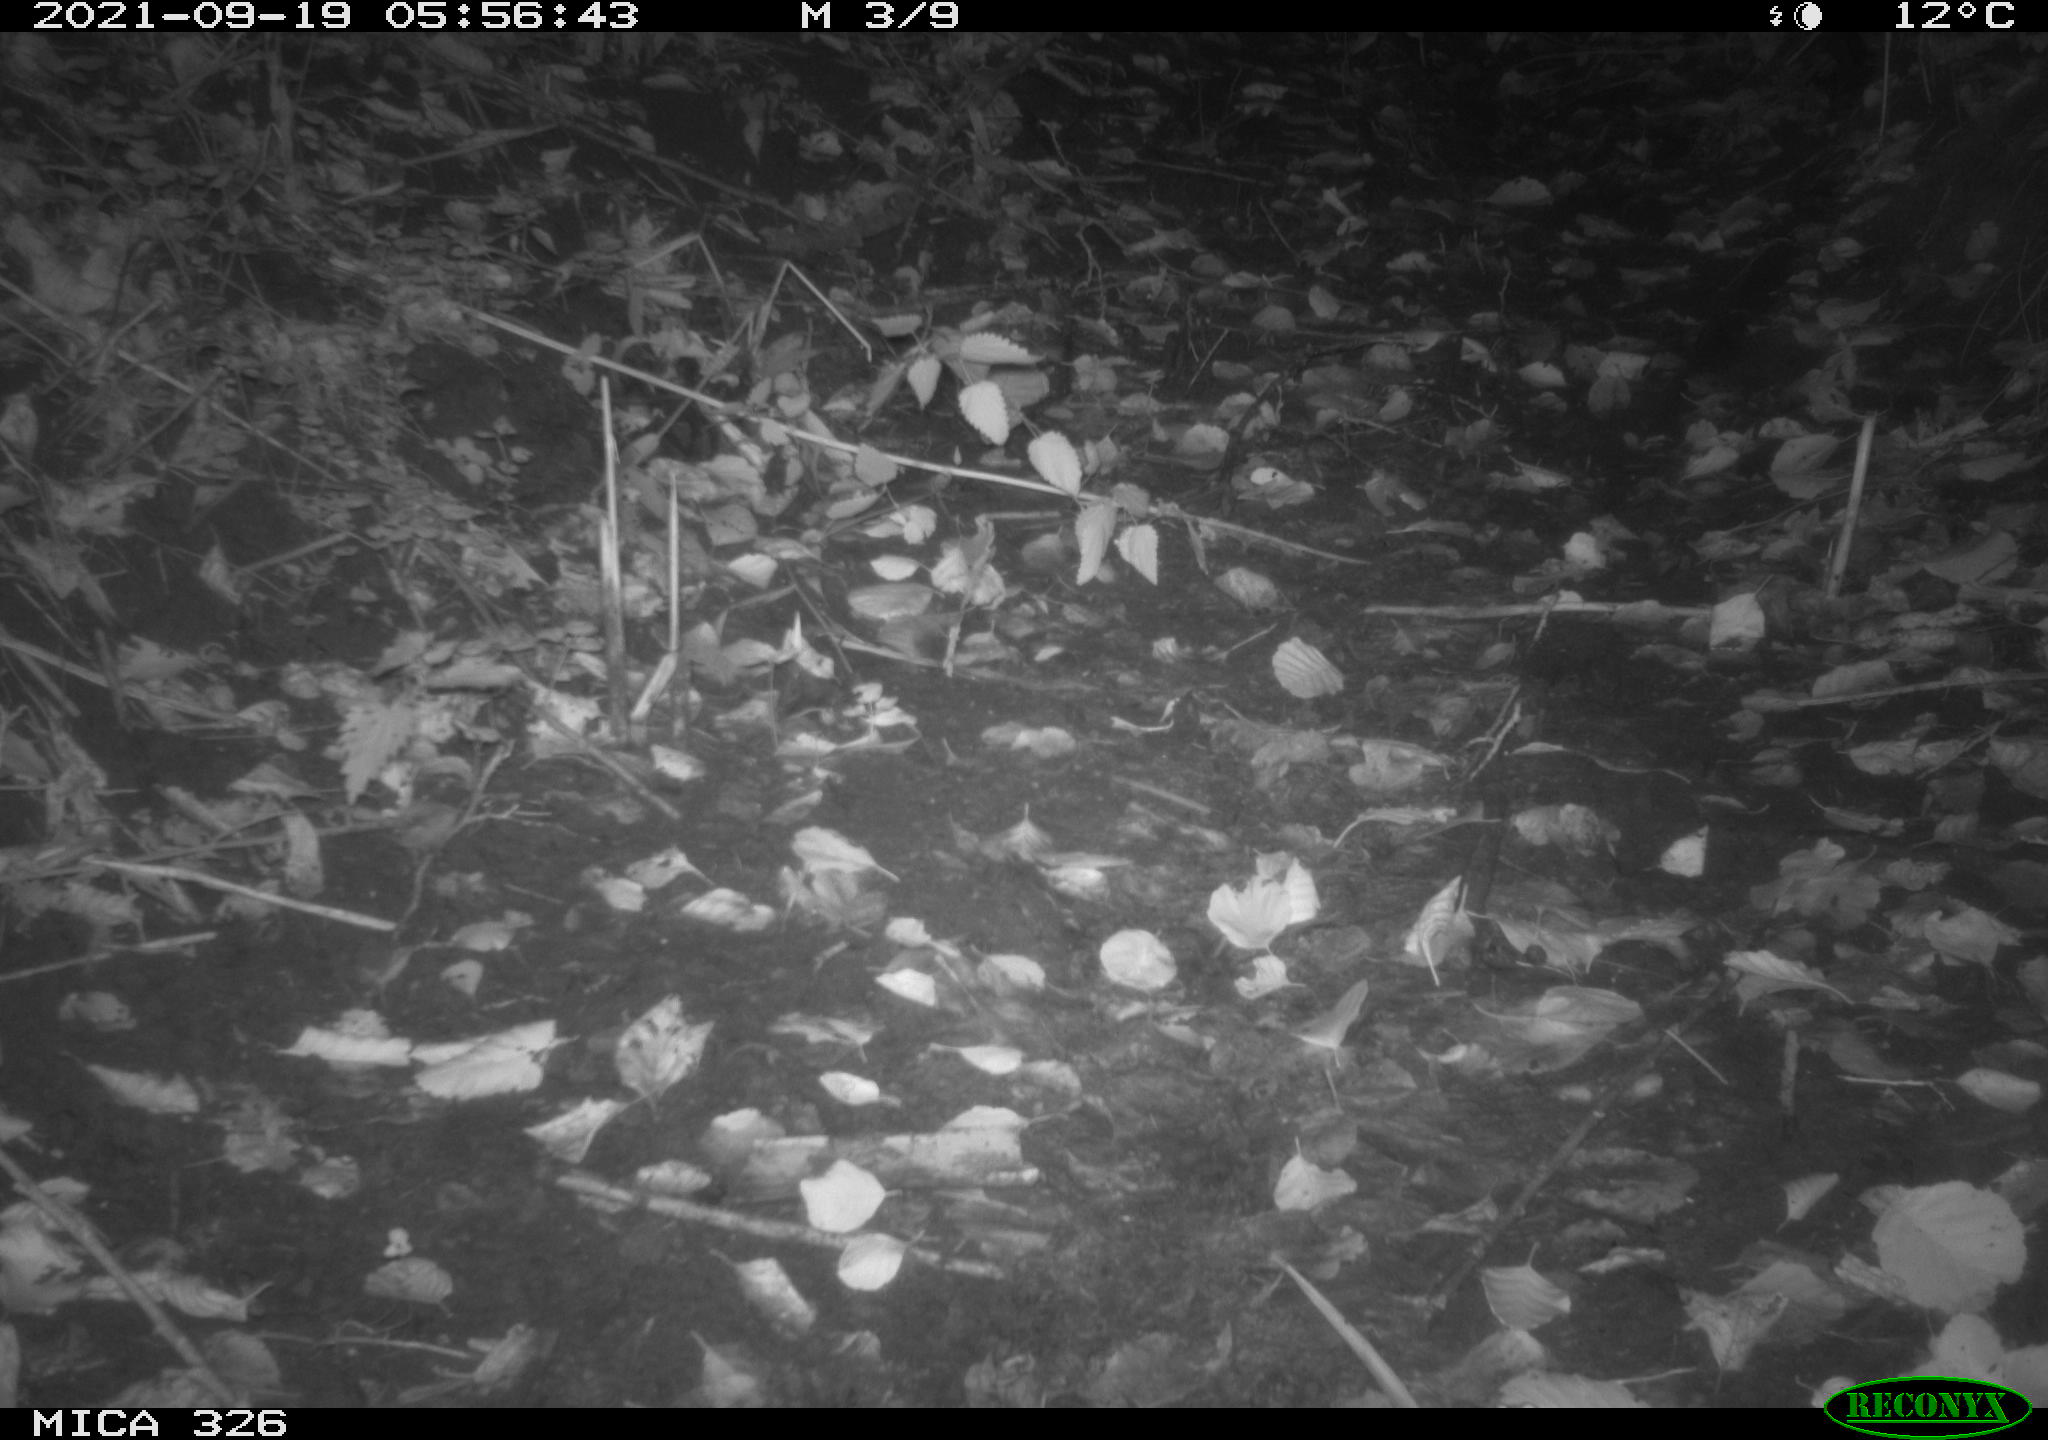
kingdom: Animalia
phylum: Chordata
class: Mammalia
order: Rodentia
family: Muridae
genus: Rattus
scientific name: Rattus norvegicus
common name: Brown rat
